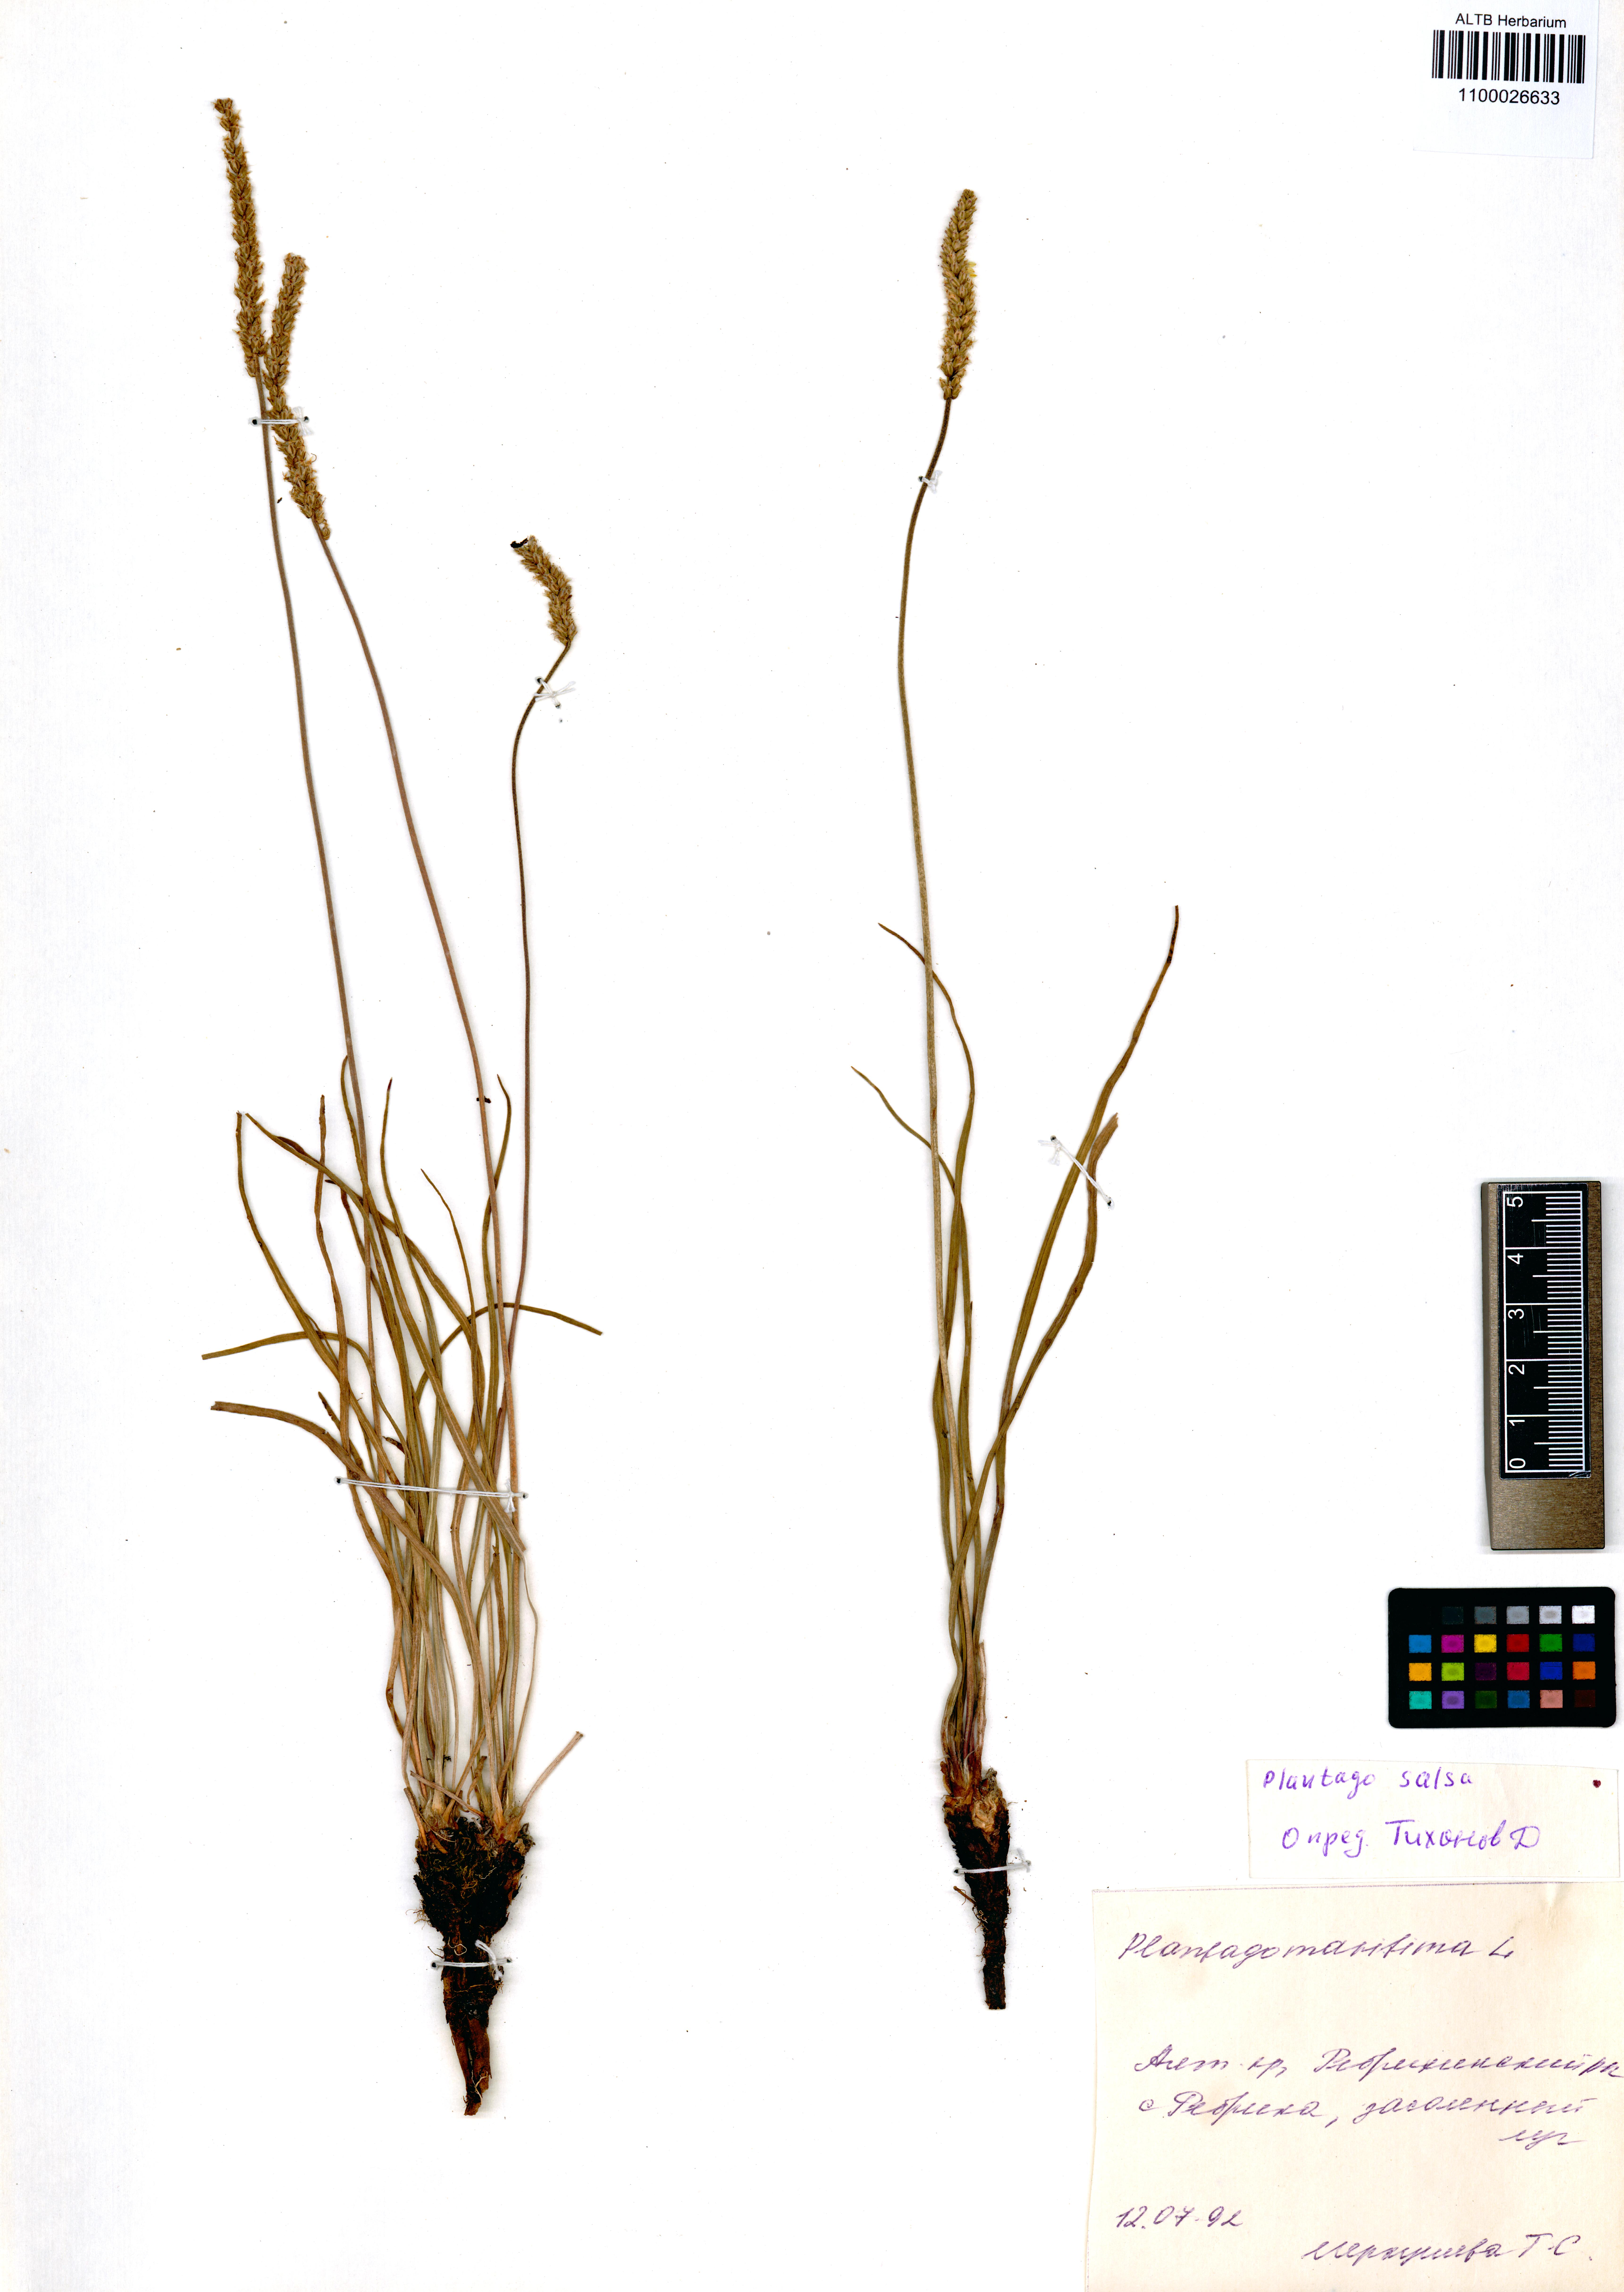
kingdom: Plantae
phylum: Tracheophyta
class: Magnoliopsida
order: Lamiales
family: Plantaginaceae
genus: Plantago
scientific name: Plantago salsa
